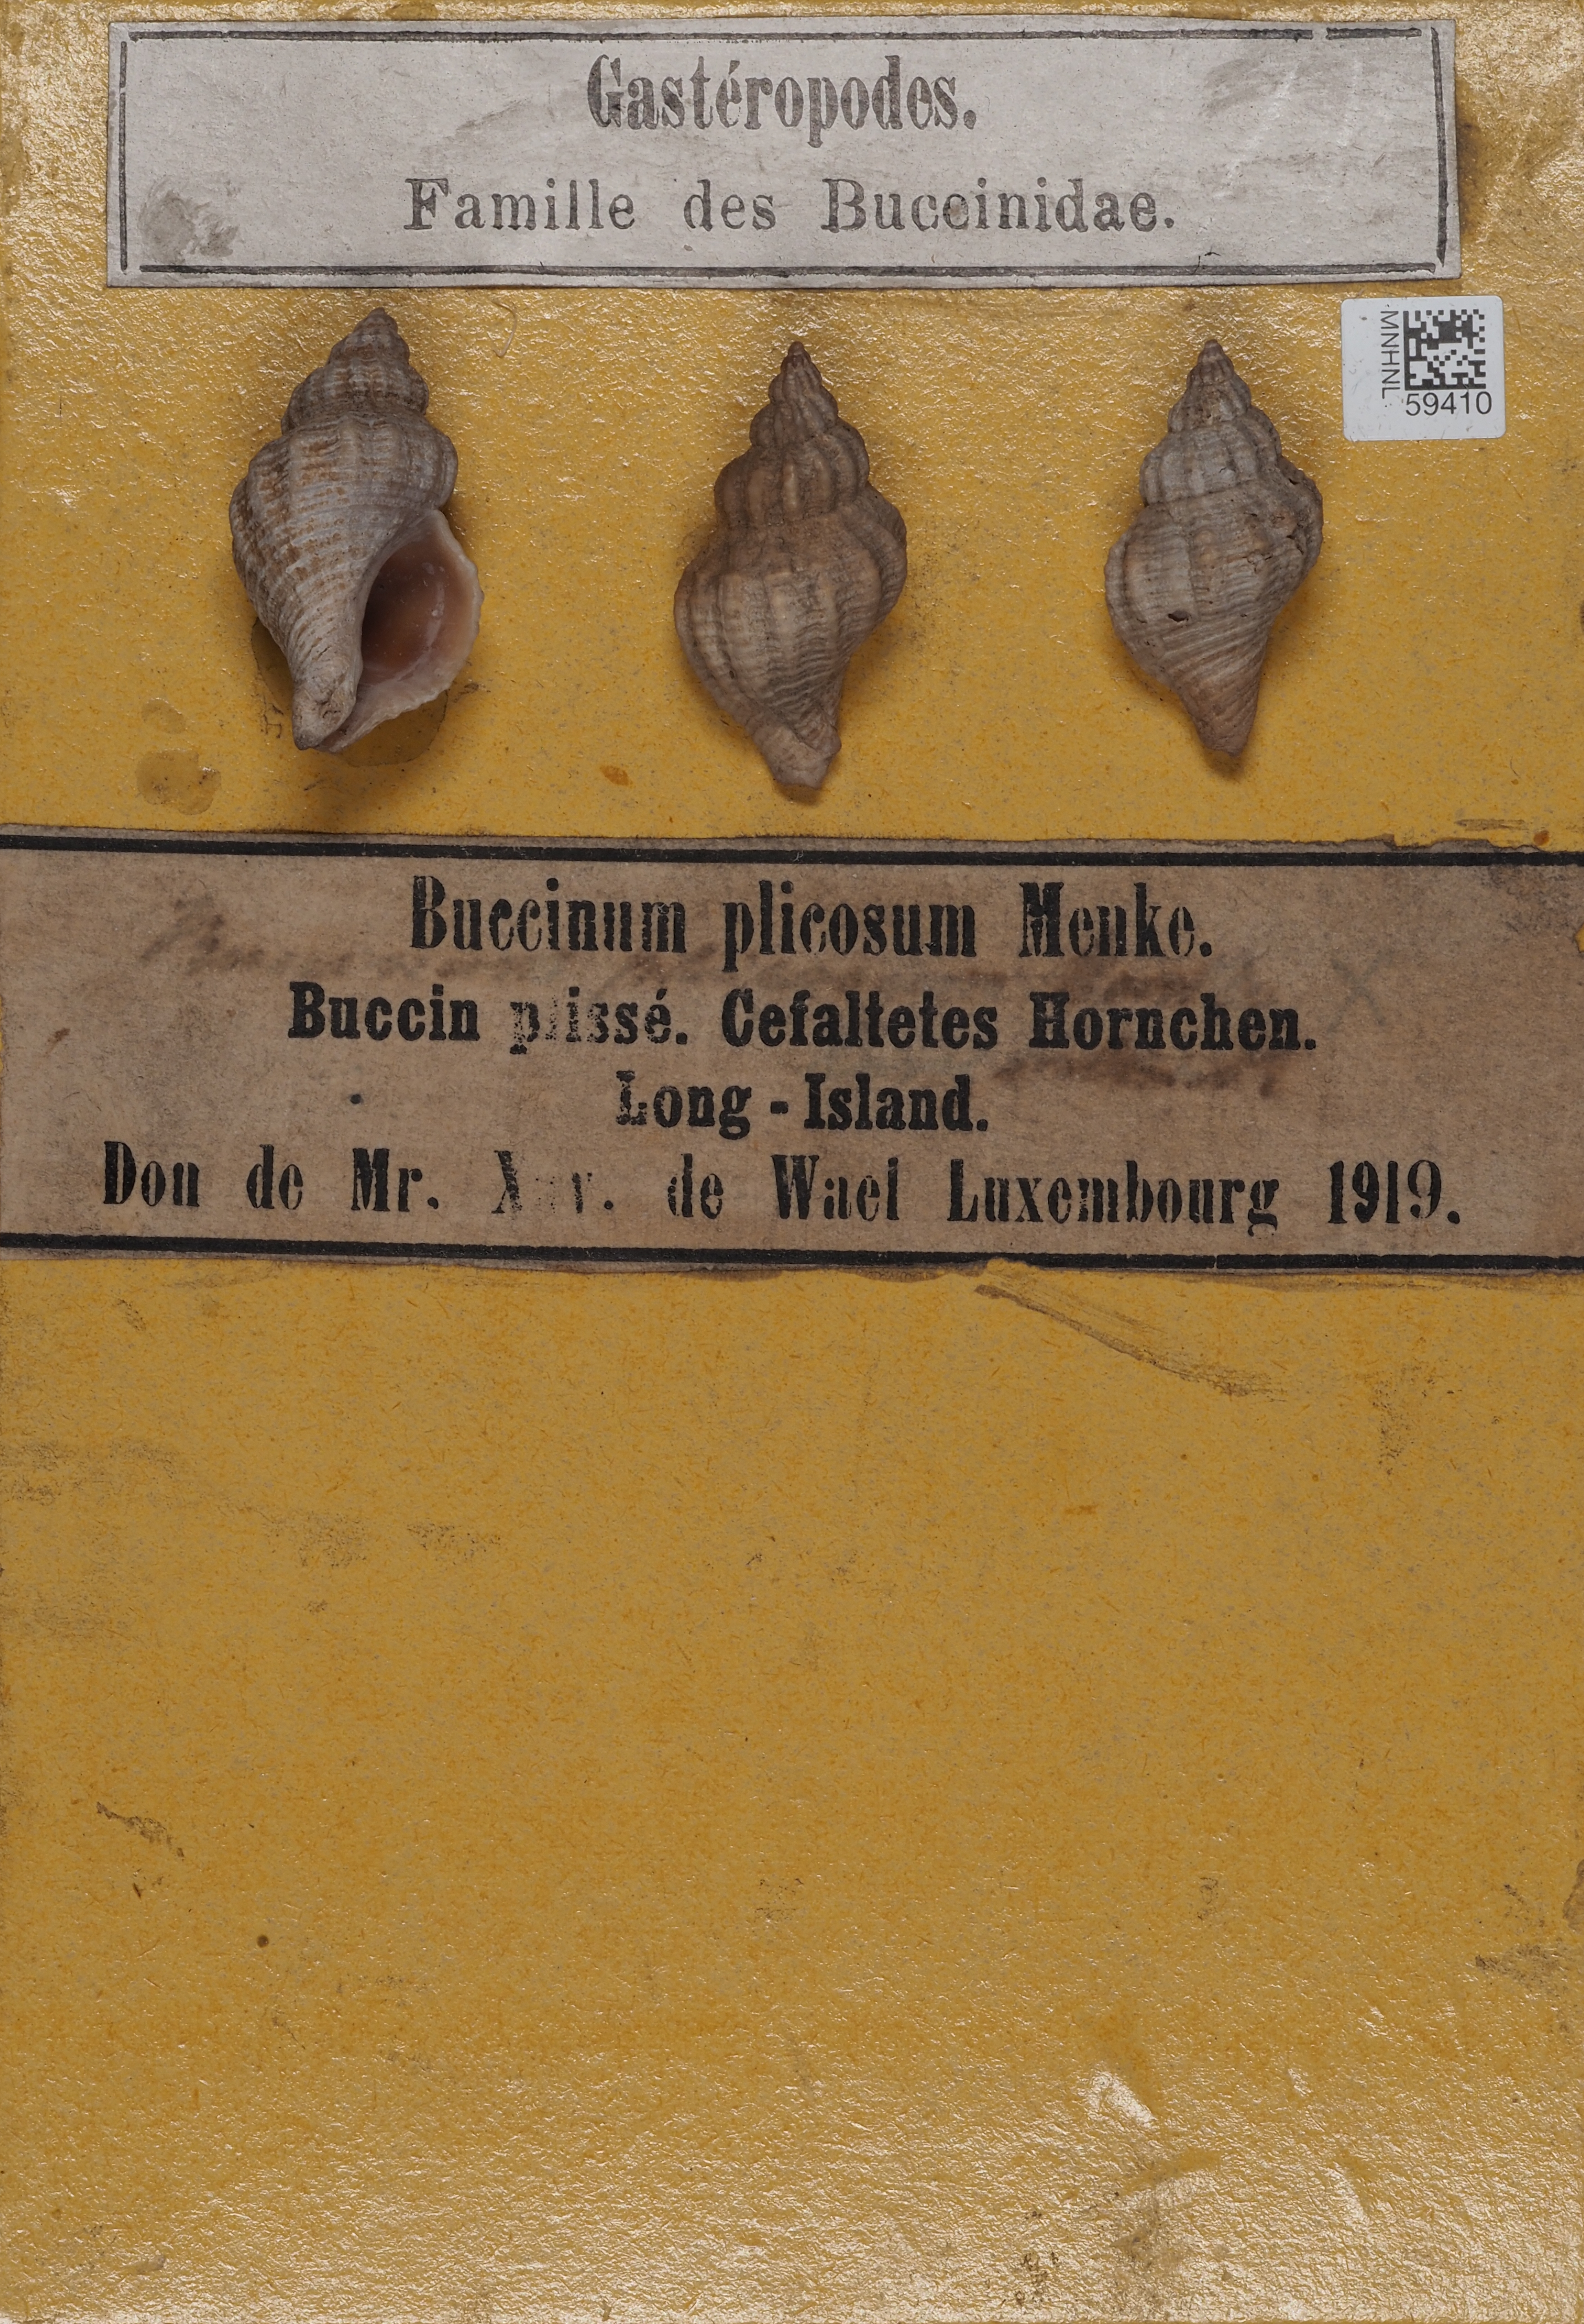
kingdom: Animalia
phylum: Mollusca
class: Gastropoda
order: Neogastropoda
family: Fasciolariidae
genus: Fusinus
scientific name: Fusinus Fusus plicosus
